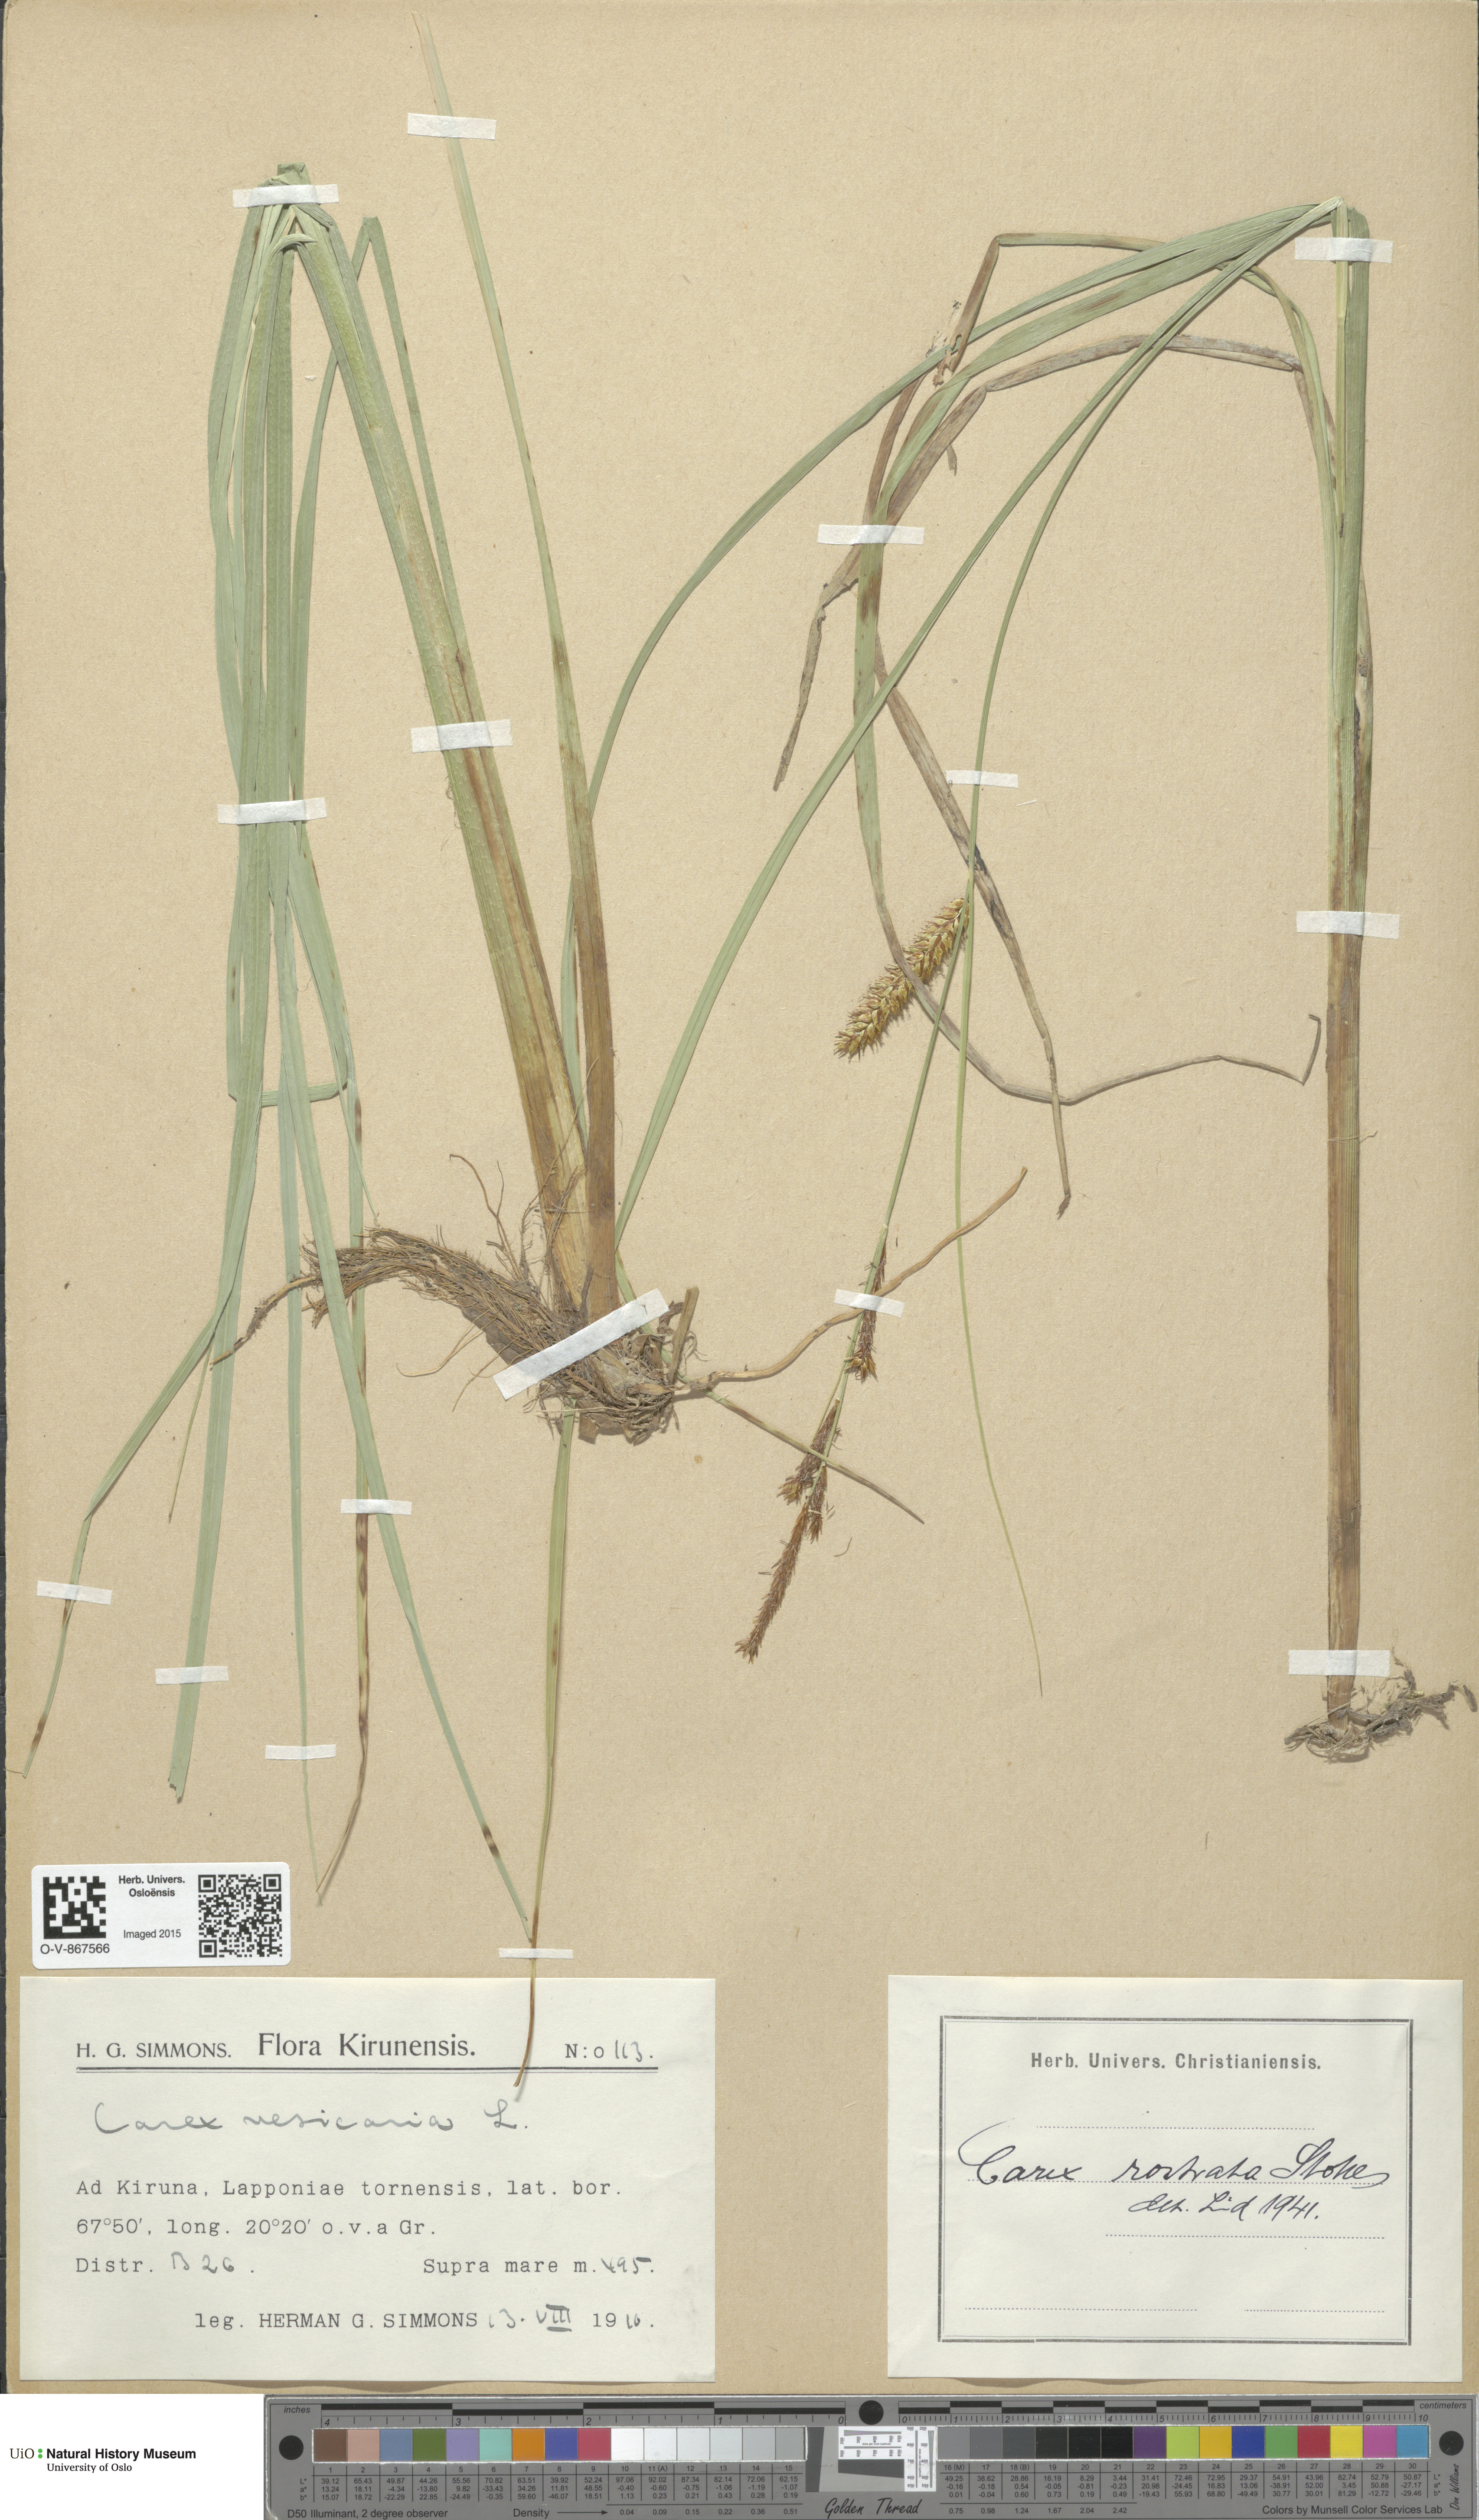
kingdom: Plantae
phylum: Tracheophyta
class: Liliopsida
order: Poales
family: Cyperaceae
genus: Carex
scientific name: Carex rostrata
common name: Bottle sedge
